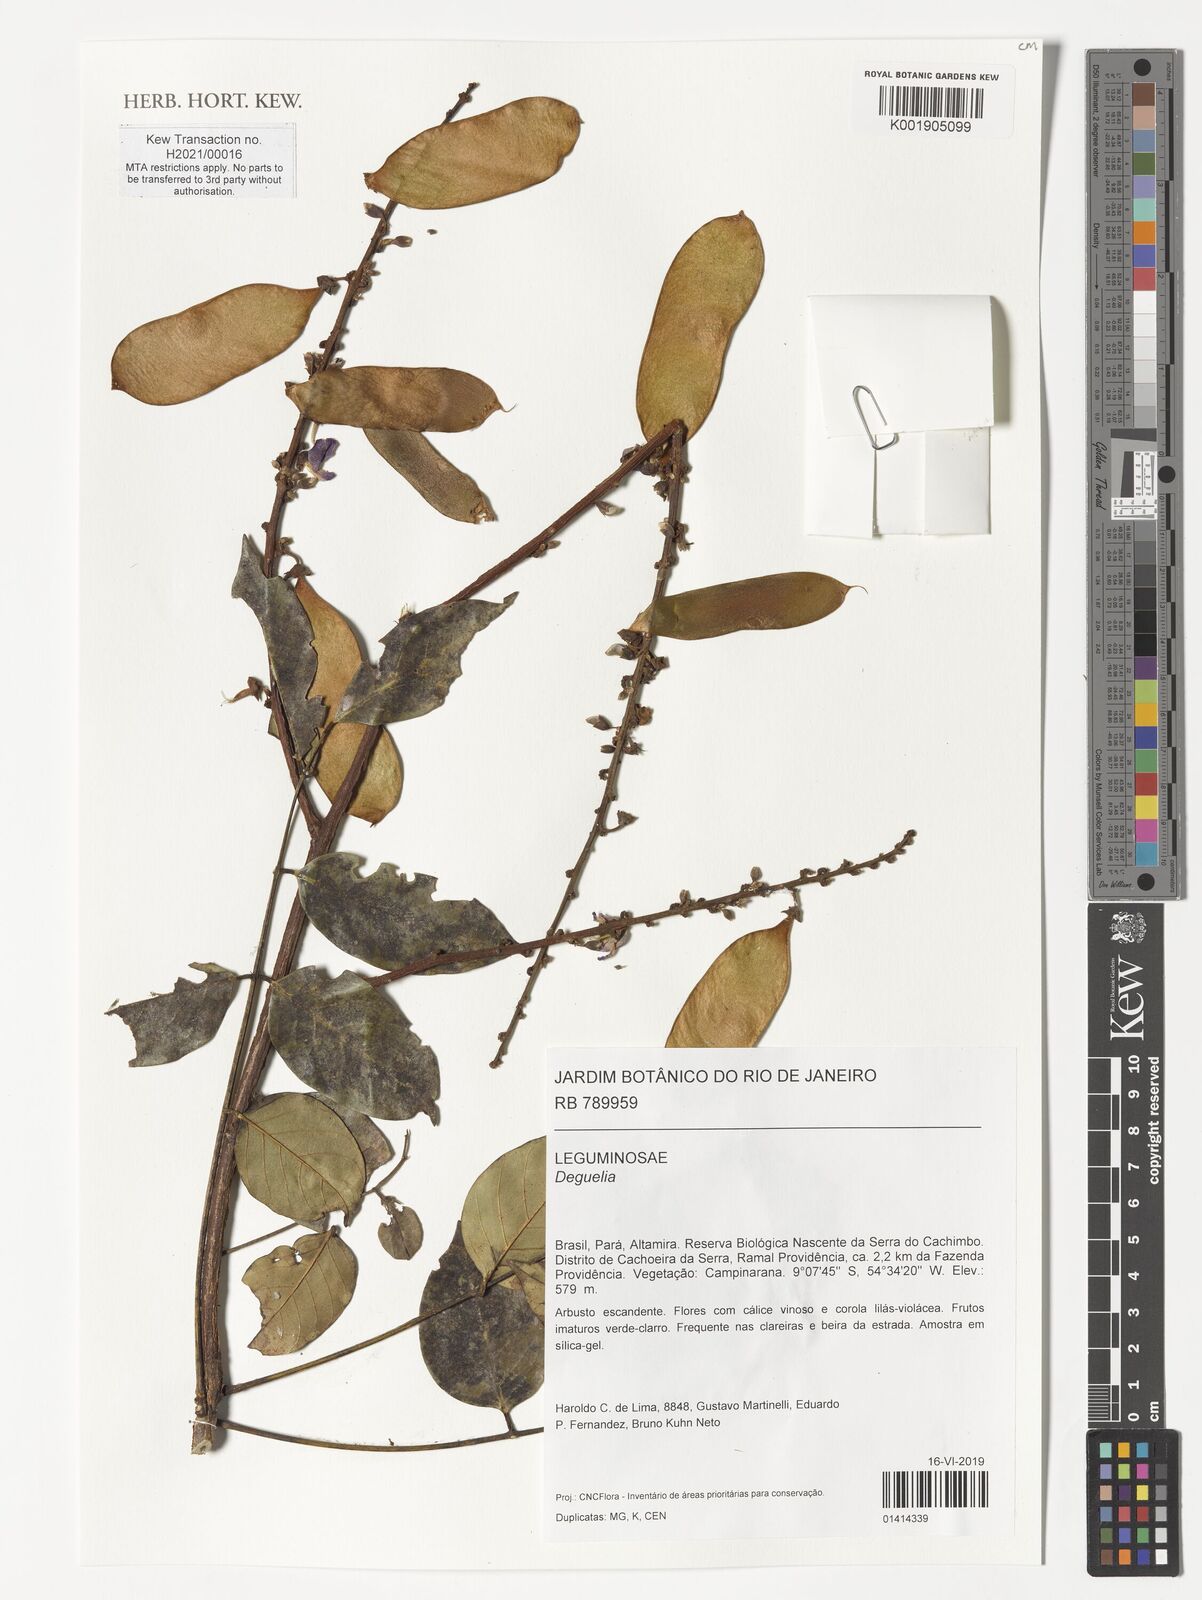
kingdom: Plantae
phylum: Tracheophyta
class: Magnoliopsida
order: Fabales
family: Fabaceae
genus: Deguelia
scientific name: Deguelia
